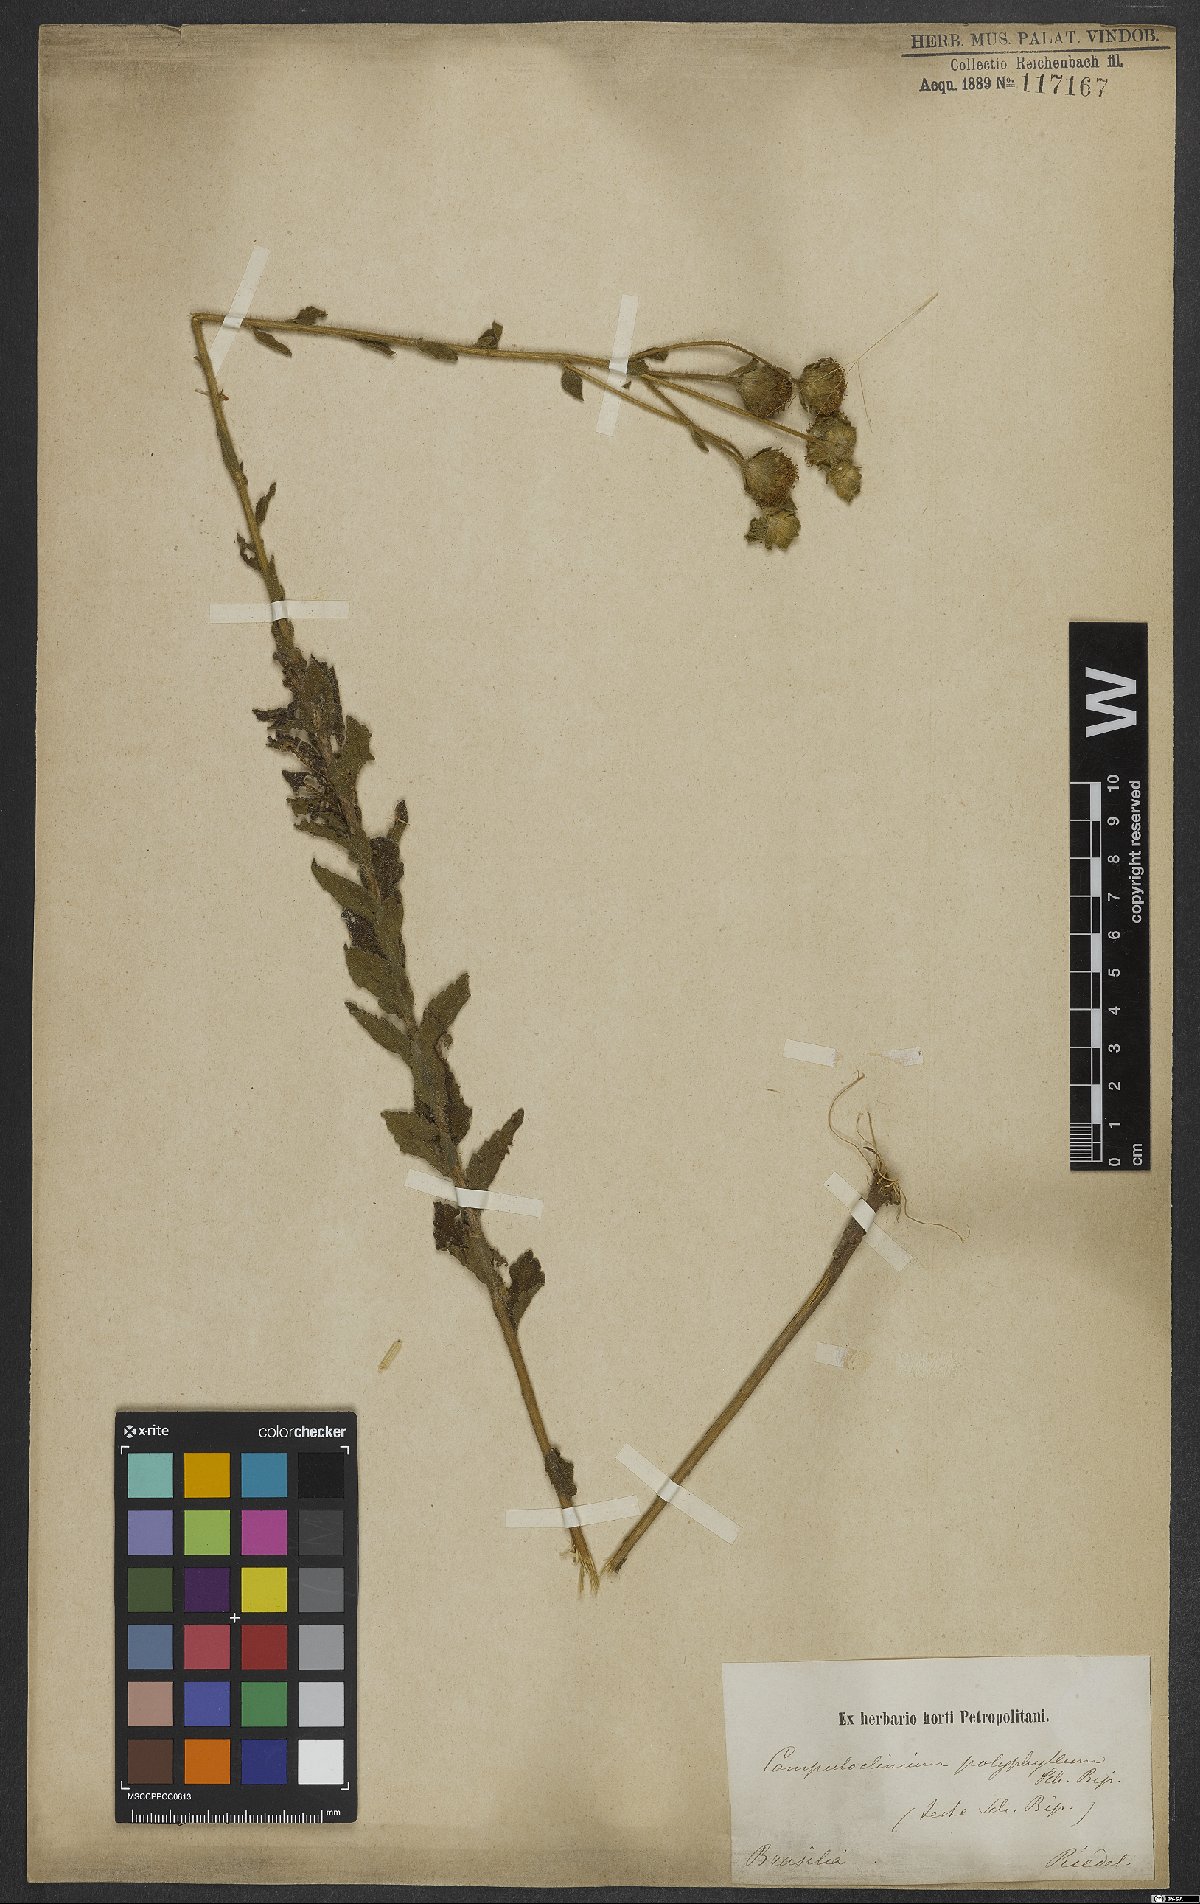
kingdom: Plantae
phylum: Tracheophyta
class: Magnoliopsida
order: Asterales
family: Asteraceae
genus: Campuloclinium
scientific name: Campuloclinium megacephalum
